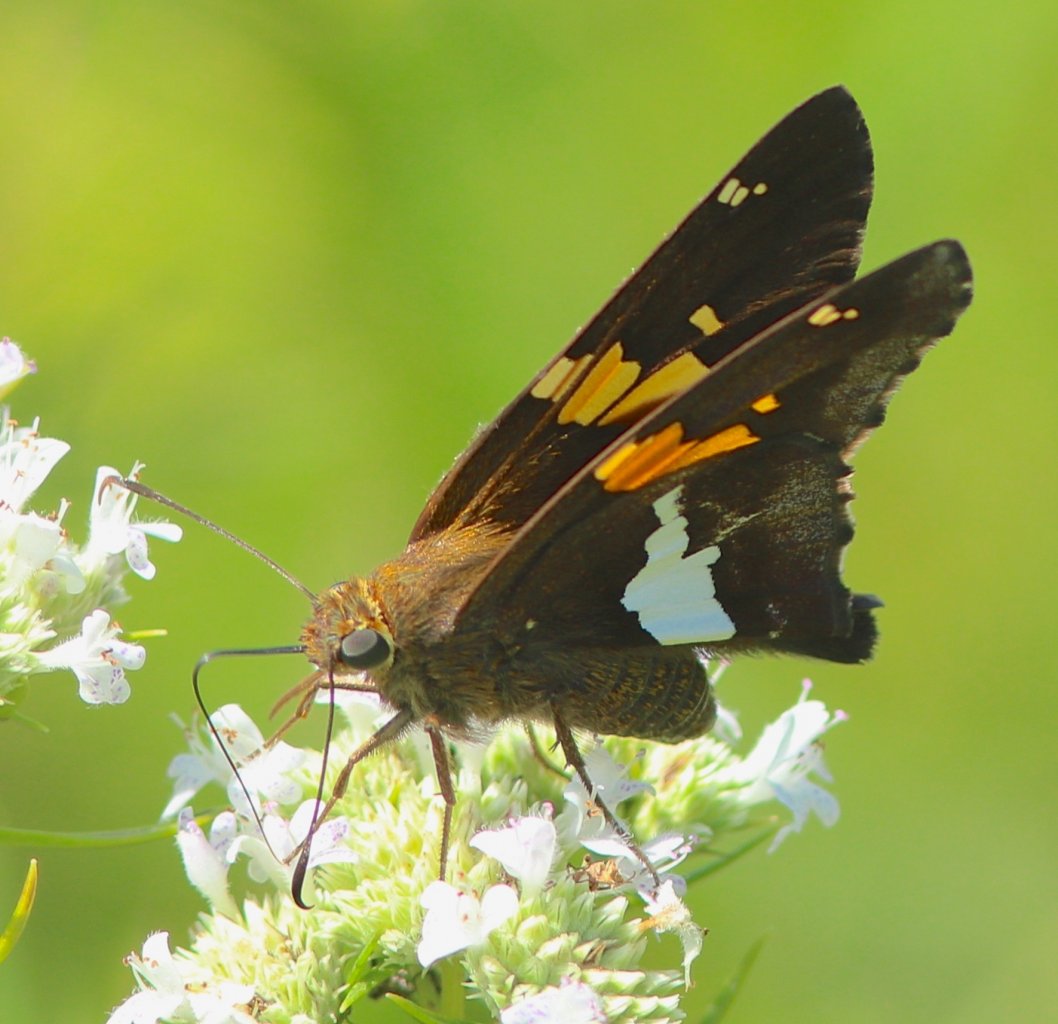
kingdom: Animalia
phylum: Arthropoda
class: Insecta
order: Lepidoptera
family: Hesperiidae
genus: Epargyreus
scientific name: Epargyreus clarus
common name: Silver-spotted Skipper
